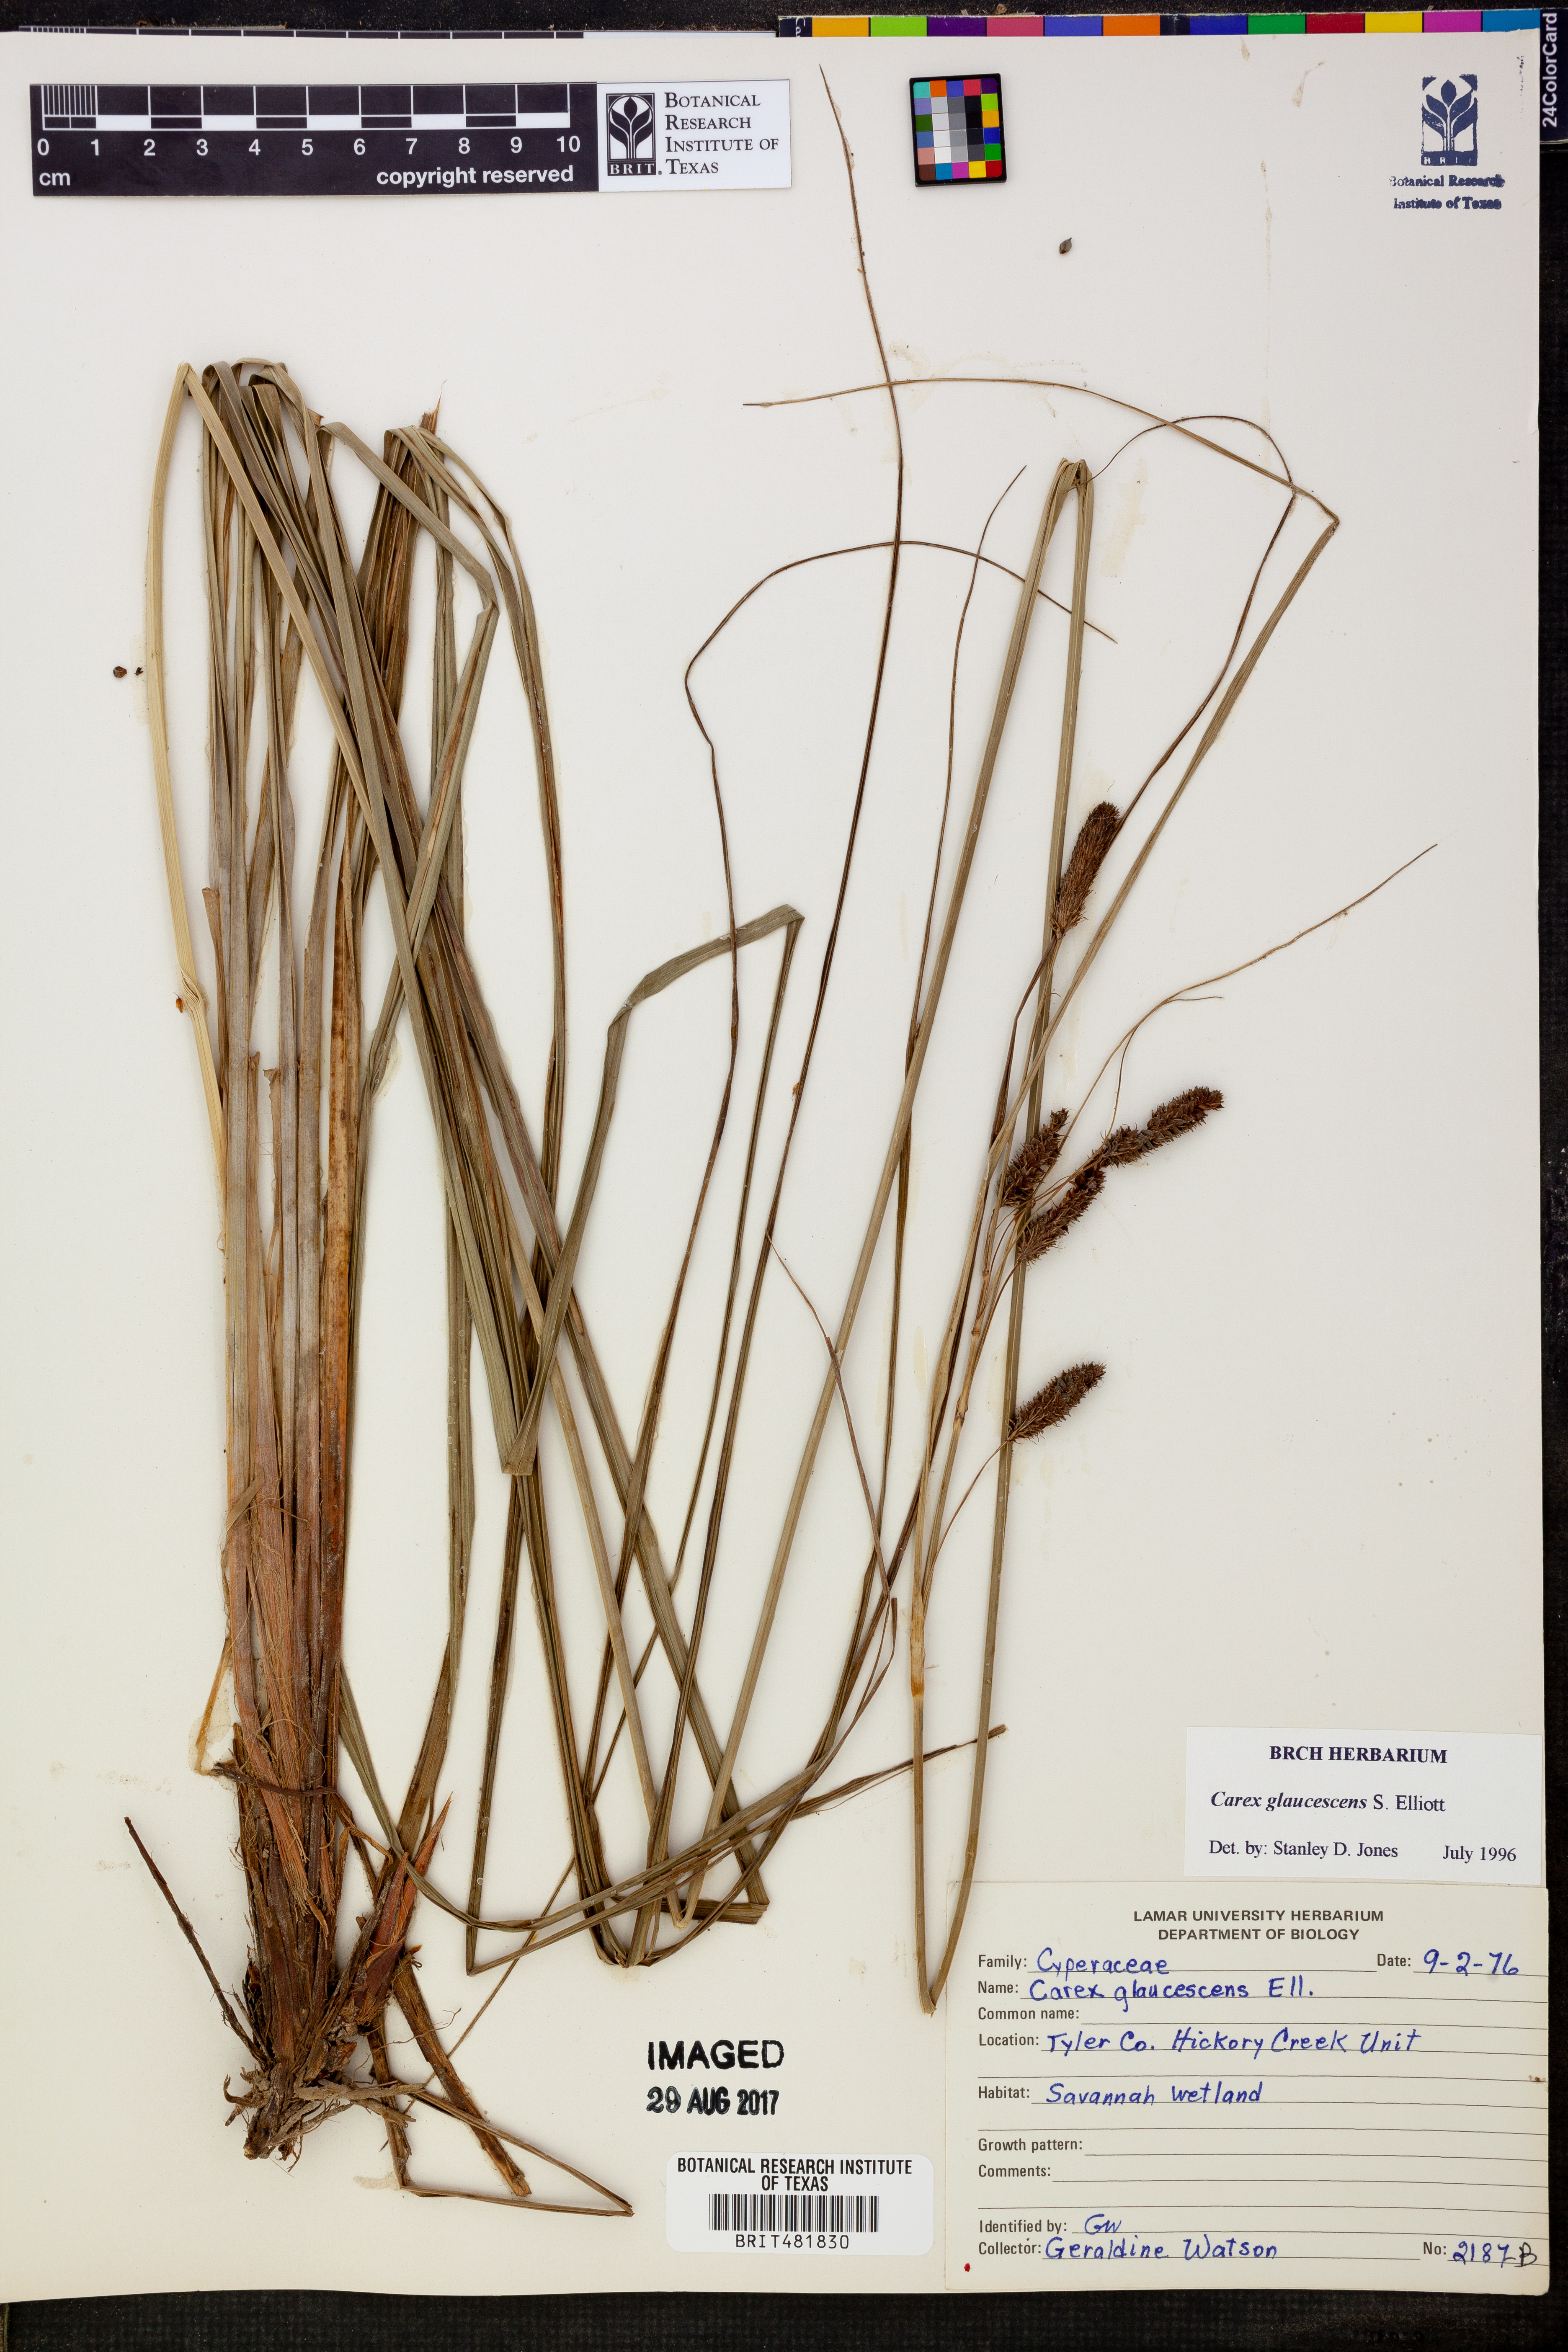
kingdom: Plantae
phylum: Tracheophyta
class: Liliopsida
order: Poales
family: Cyperaceae
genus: Carex
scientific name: Carex glaucescens
